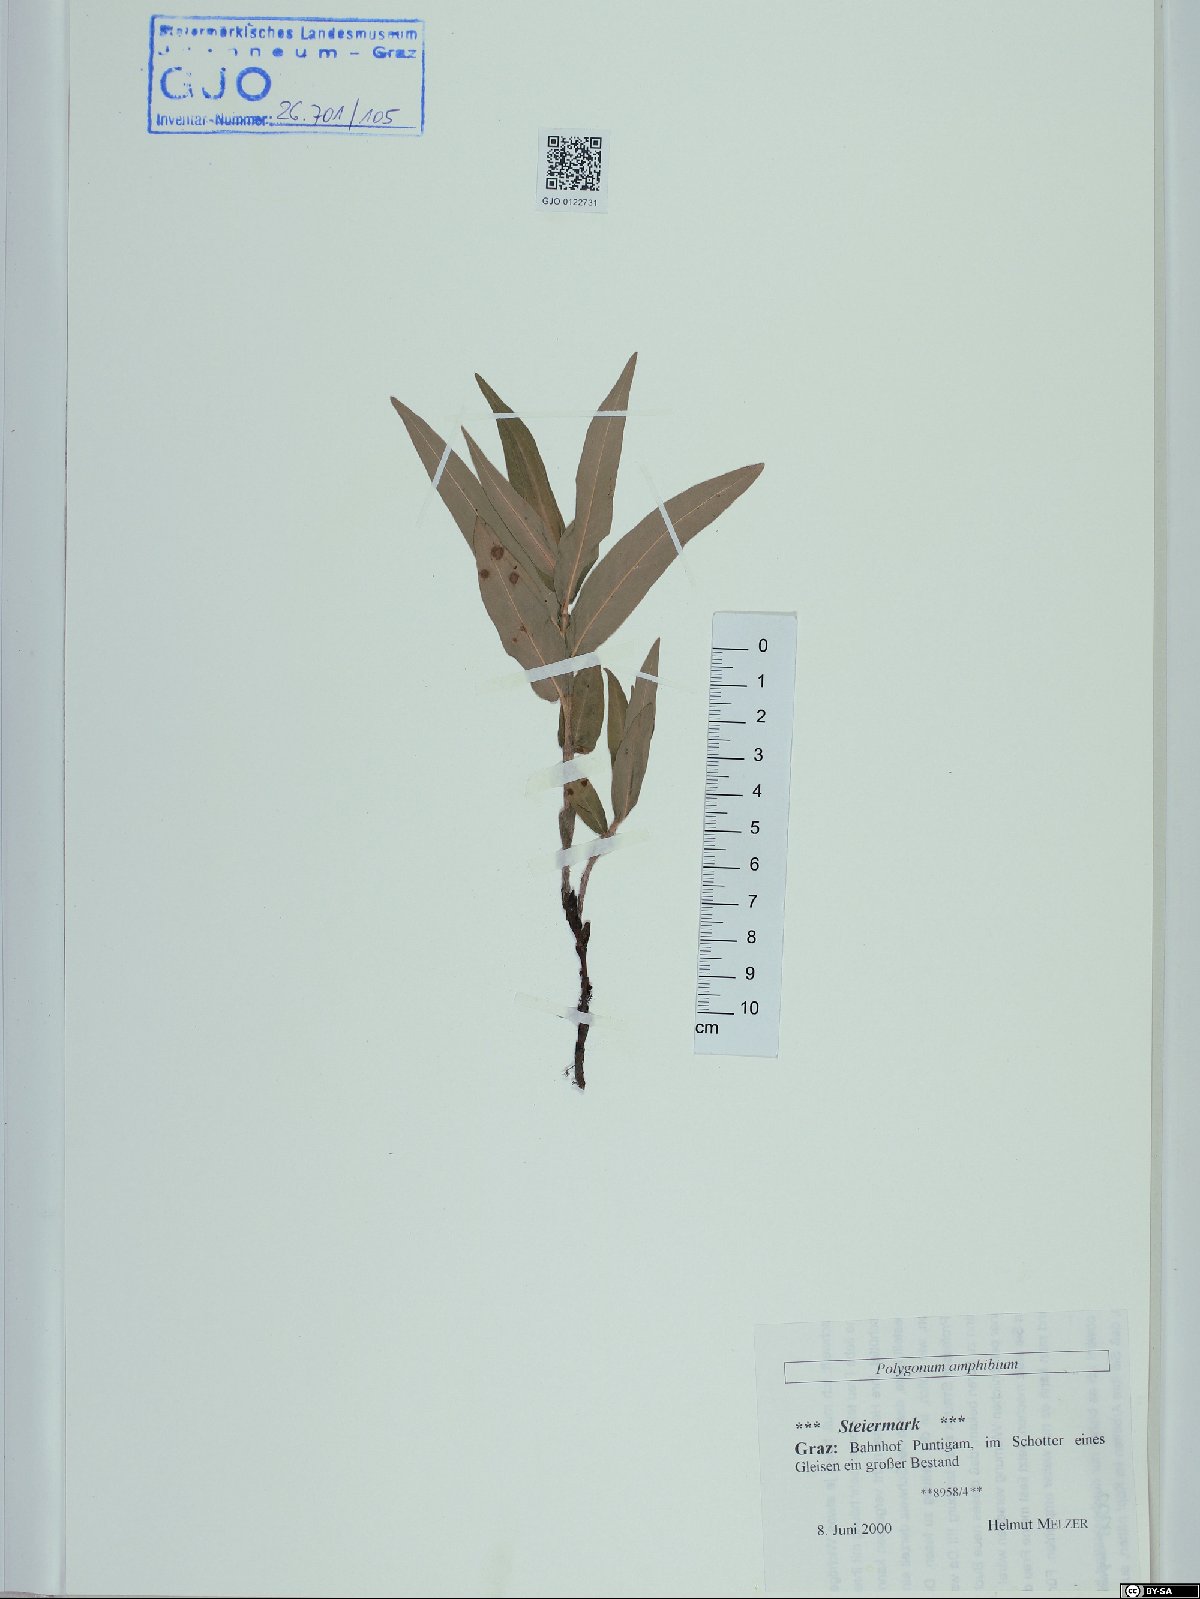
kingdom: Plantae
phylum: Tracheophyta
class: Magnoliopsida
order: Caryophyllales
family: Polygonaceae
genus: Persicaria
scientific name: Persicaria amphibia
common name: Amphibious bistort
